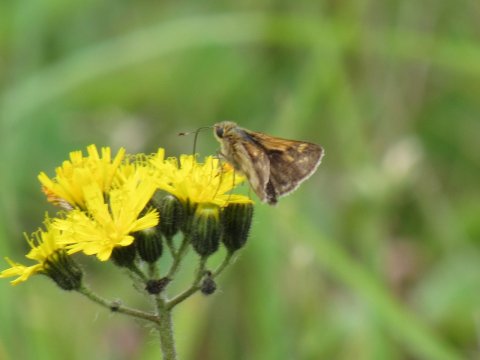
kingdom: Animalia
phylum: Arthropoda
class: Insecta
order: Lepidoptera
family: Hesperiidae
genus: Polites
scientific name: Polites coras
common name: Peck's Skipper
